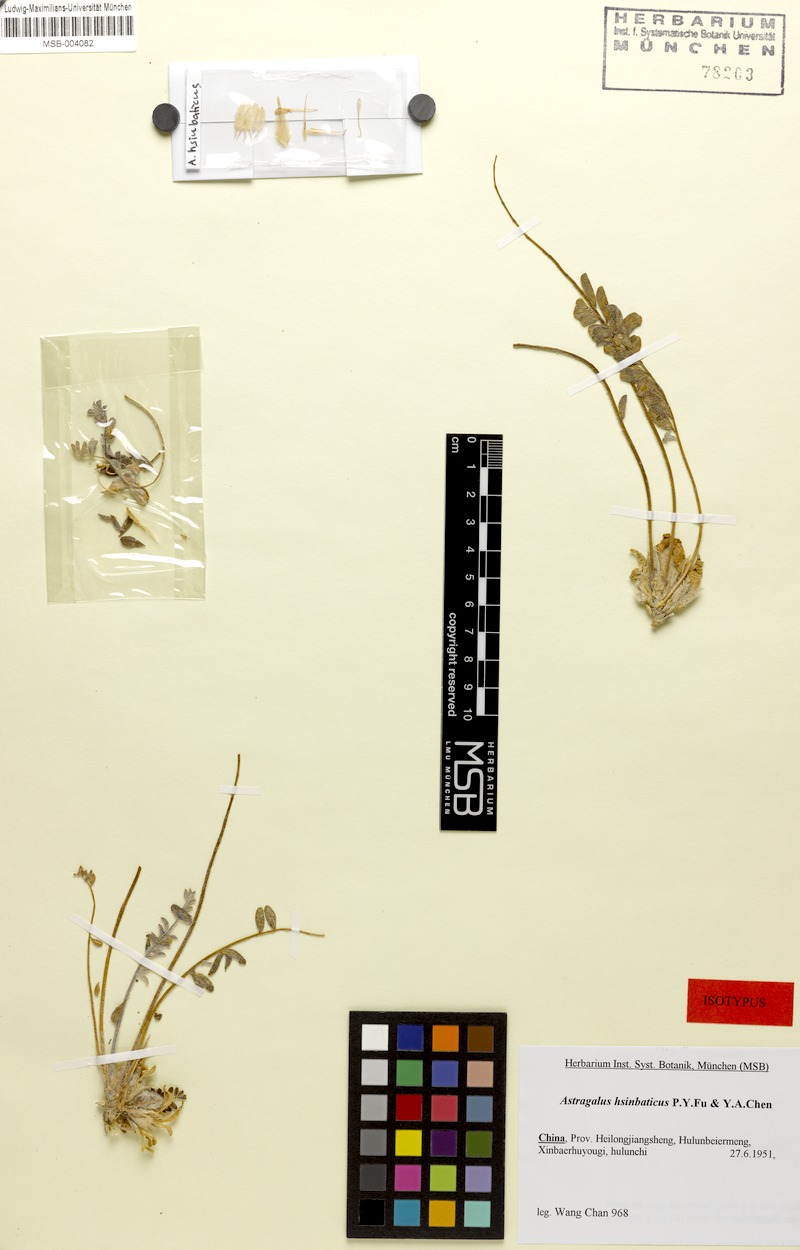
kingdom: Plantae
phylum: Tracheophyta
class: Magnoliopsida
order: Fabales
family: Fabaceae
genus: Astragalus
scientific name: Astragalus hsinbaticus
